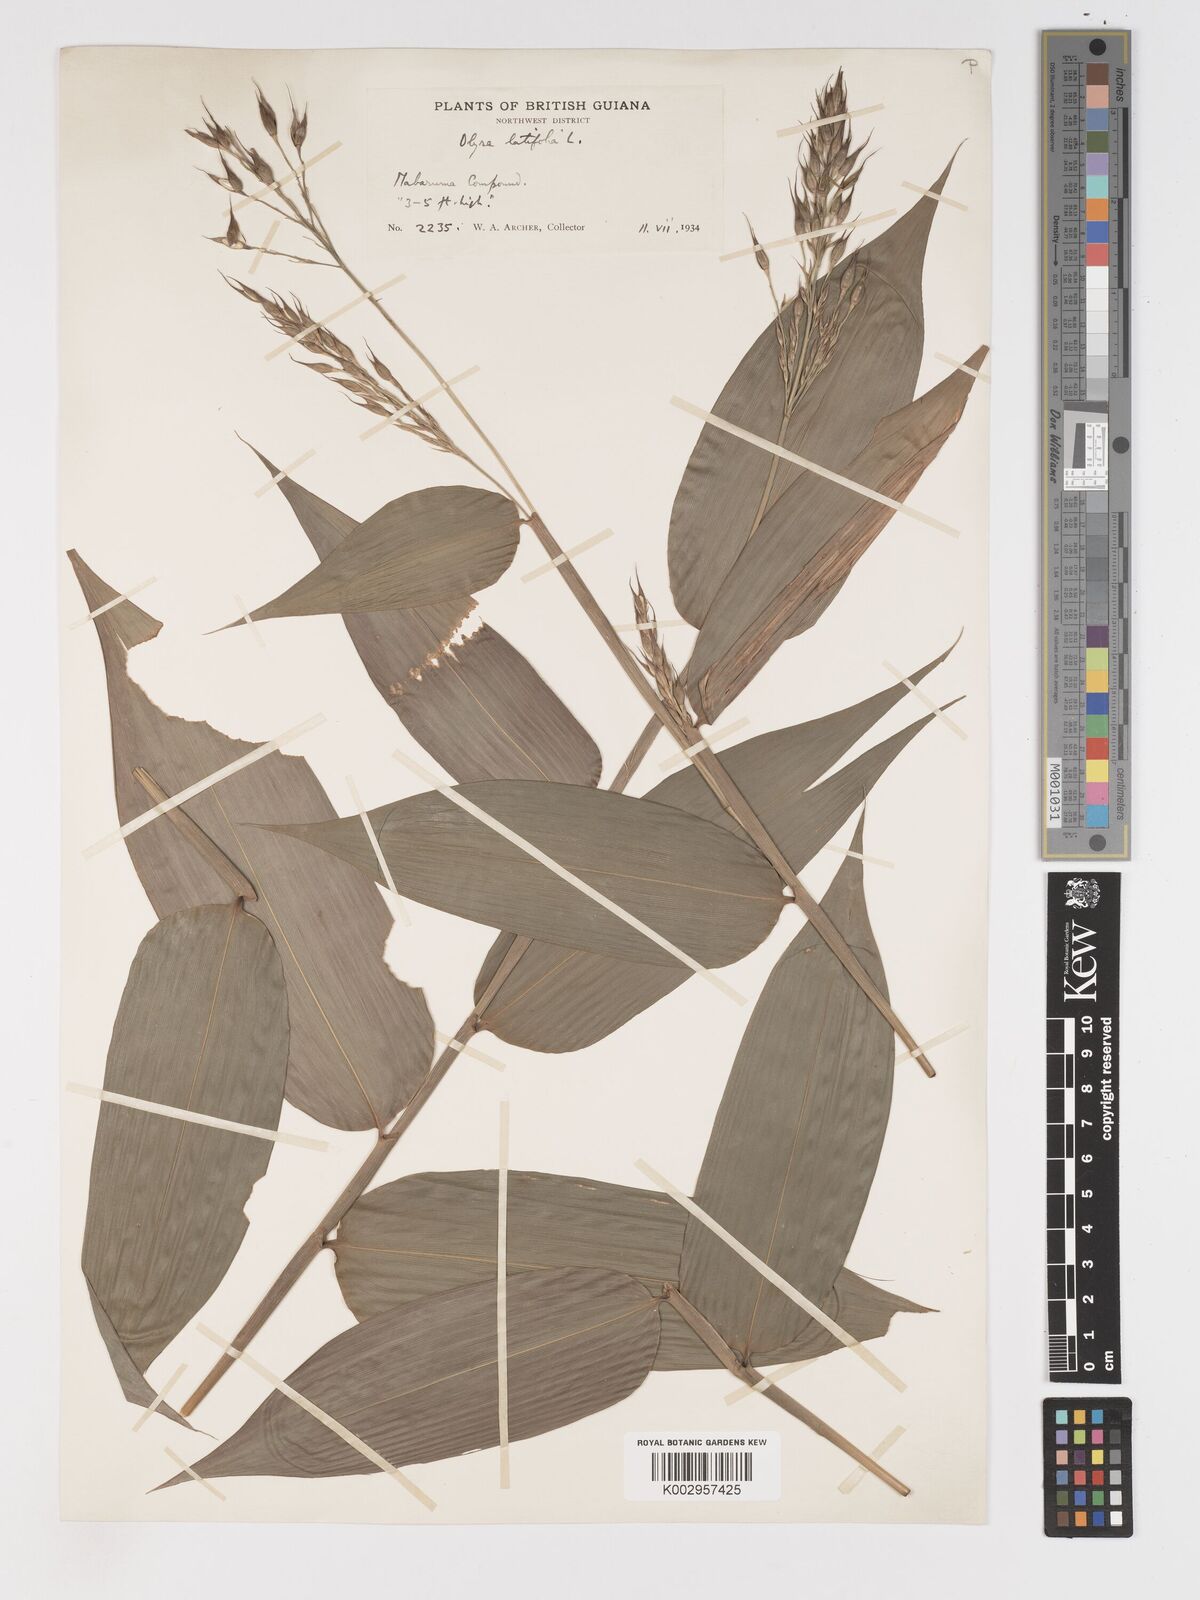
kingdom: Plantae
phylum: Tracheophyta
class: Liliopsida
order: Poales
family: Poaceae
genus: Olyra
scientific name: Olyra latifolia
